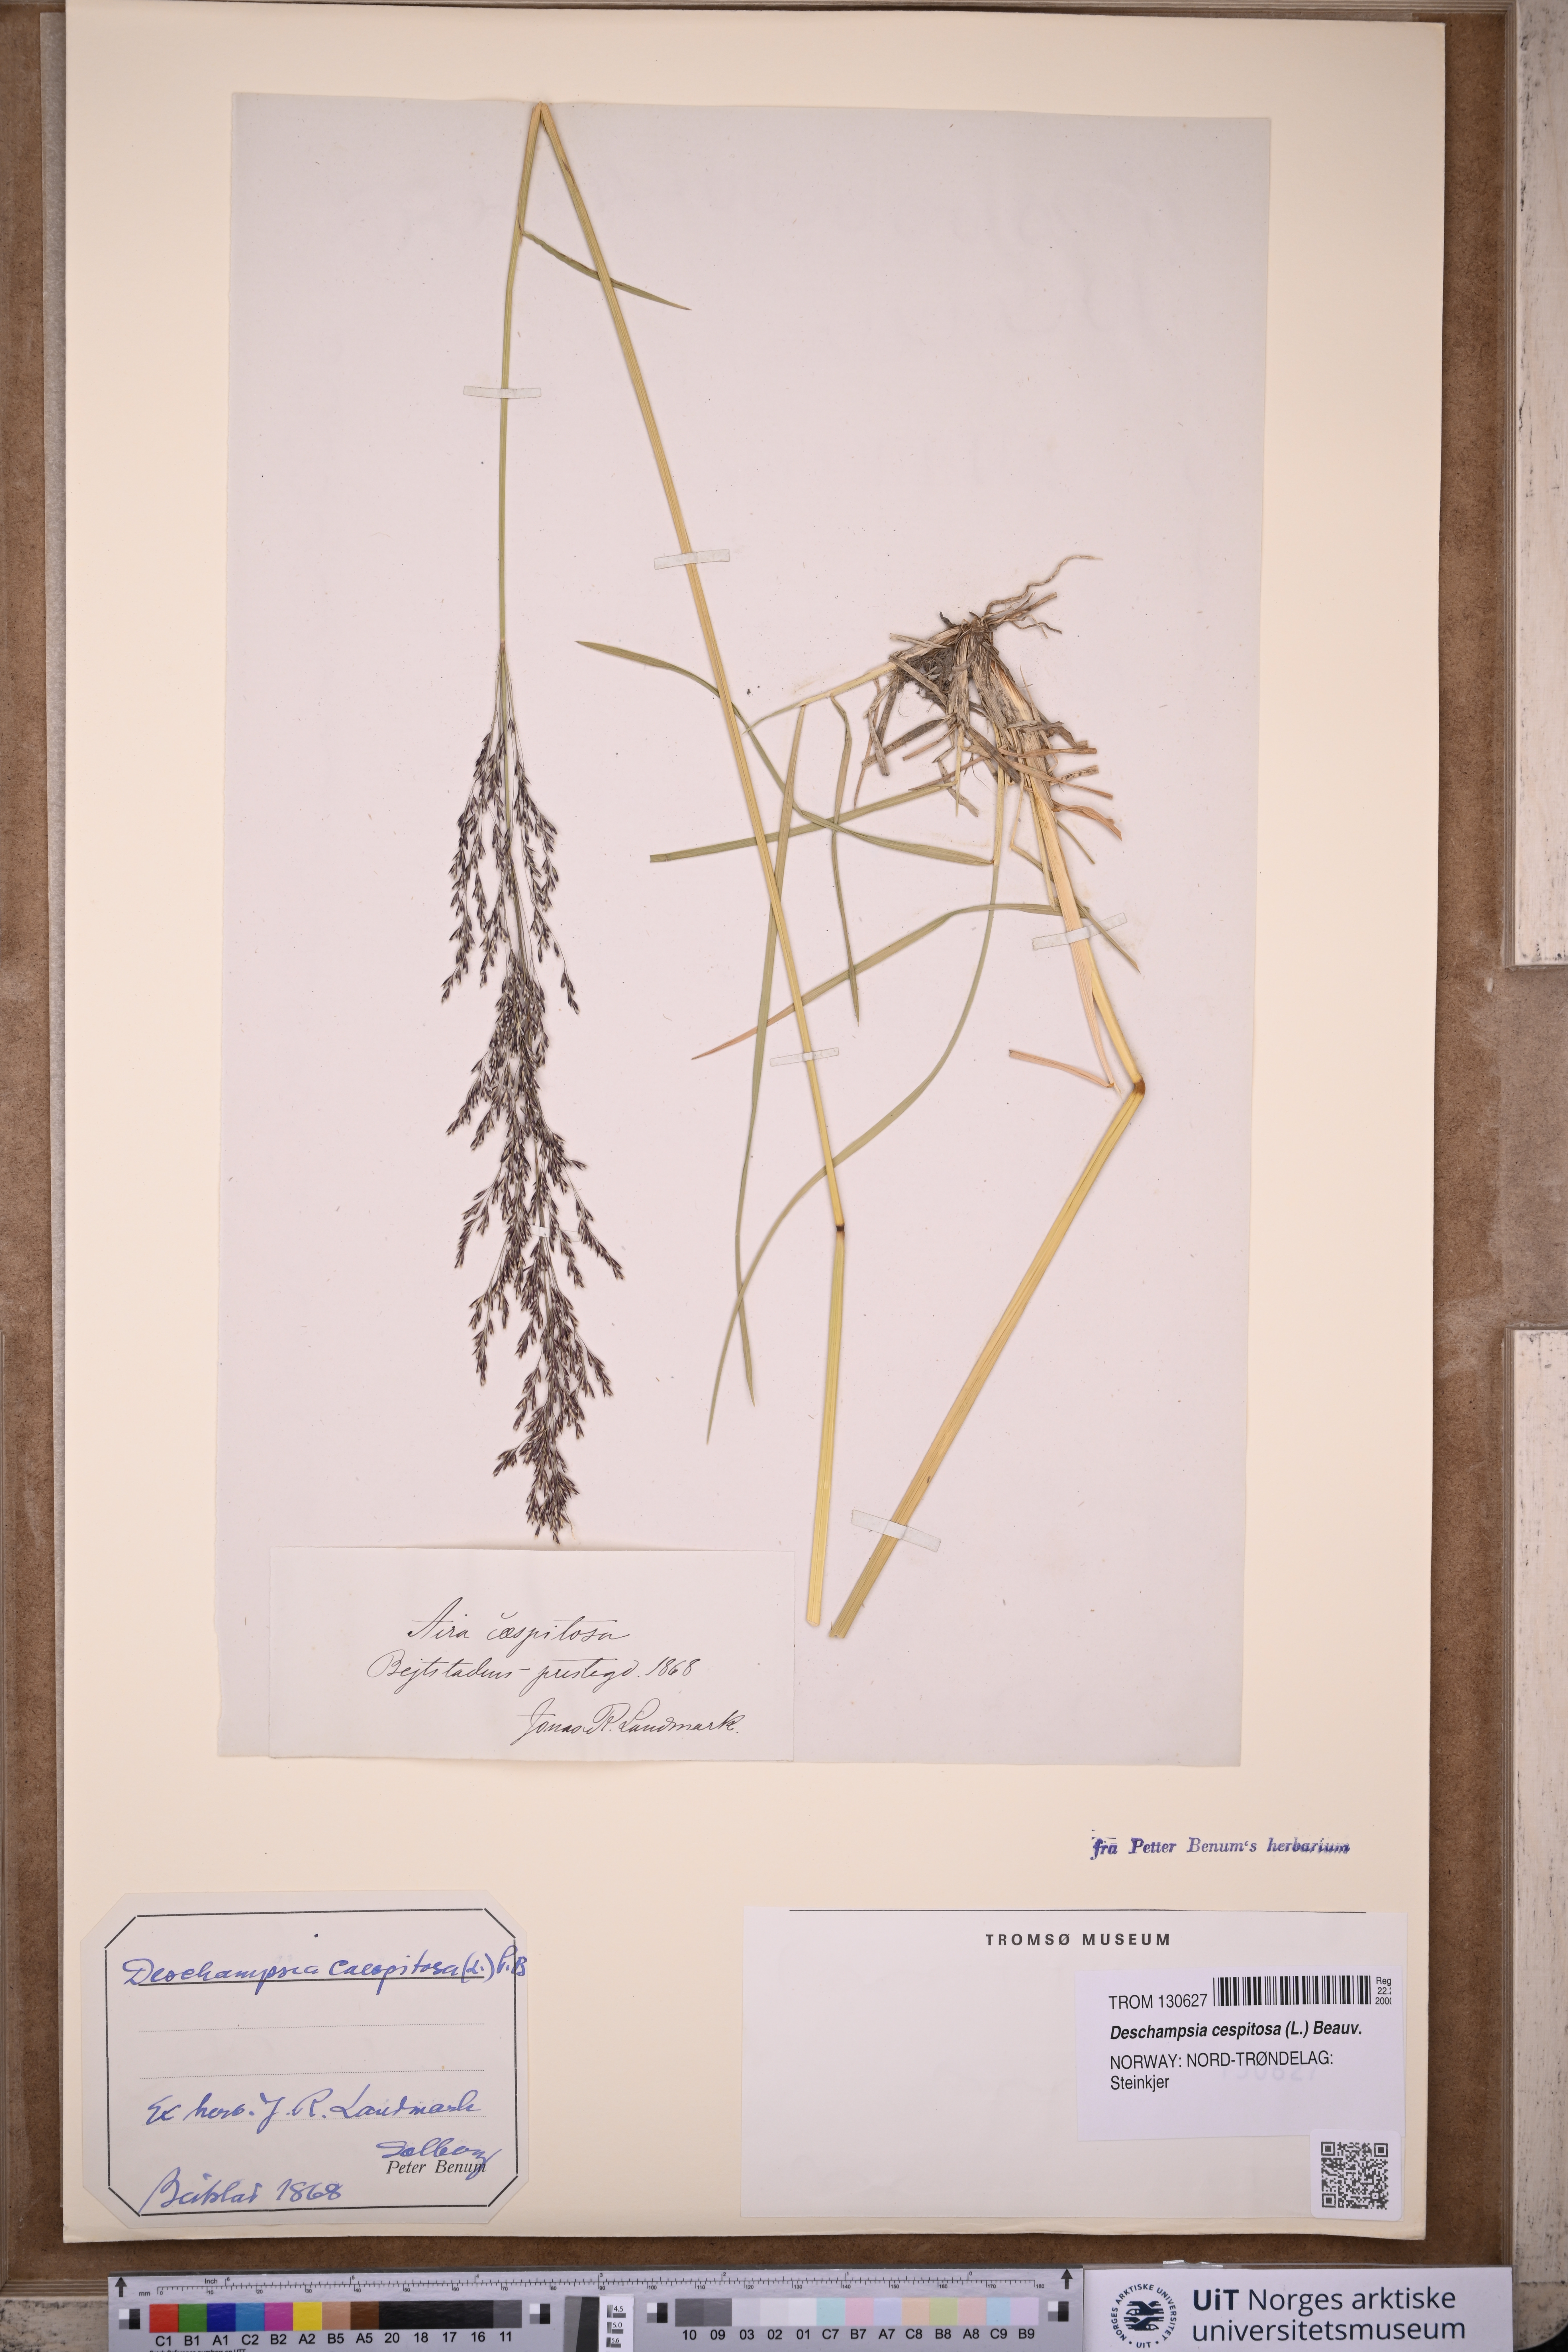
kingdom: Plantae
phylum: Tracheophyta
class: Liliopsida
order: Poales
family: Poaceae
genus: Deschampsia
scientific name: Deschampsia cespitosa
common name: Tufted hair-grass
